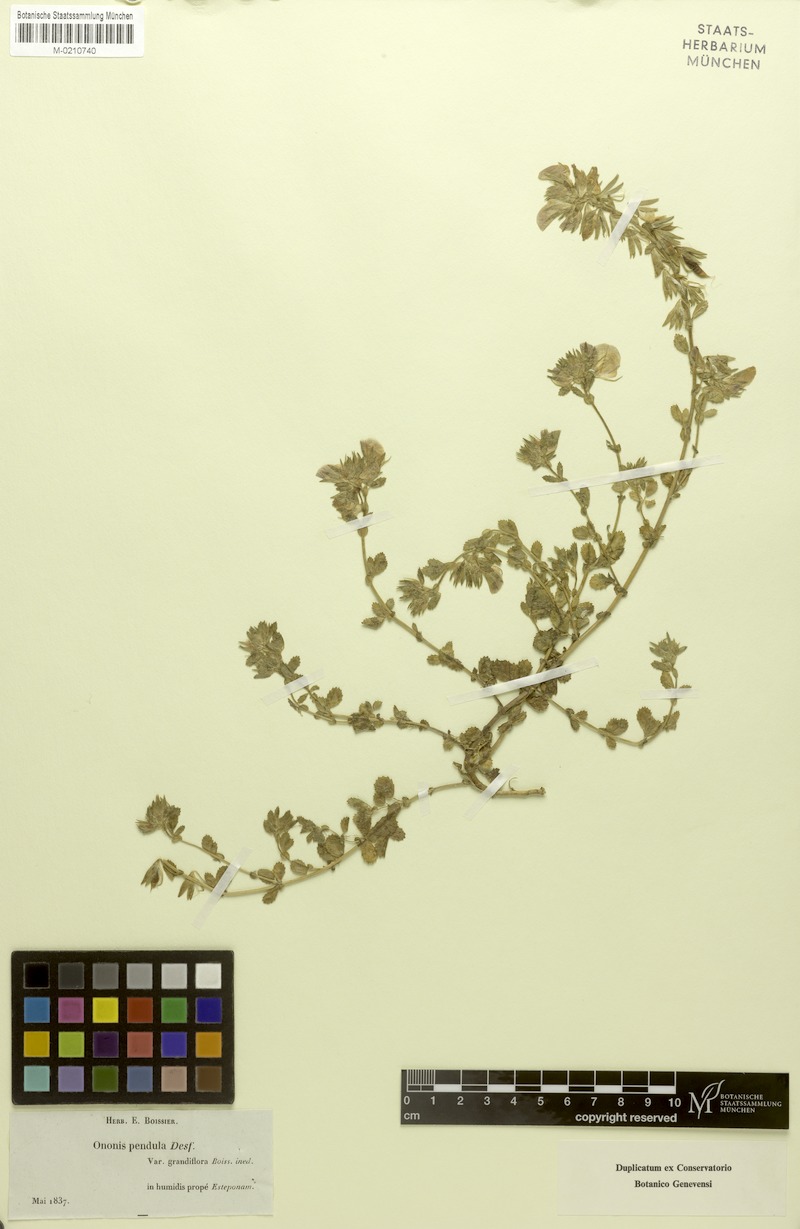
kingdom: Plantae
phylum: Tracheophyta
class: Magnoliopsida
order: Fabales
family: Fabaceae
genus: Ononis
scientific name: Ononis pendula
